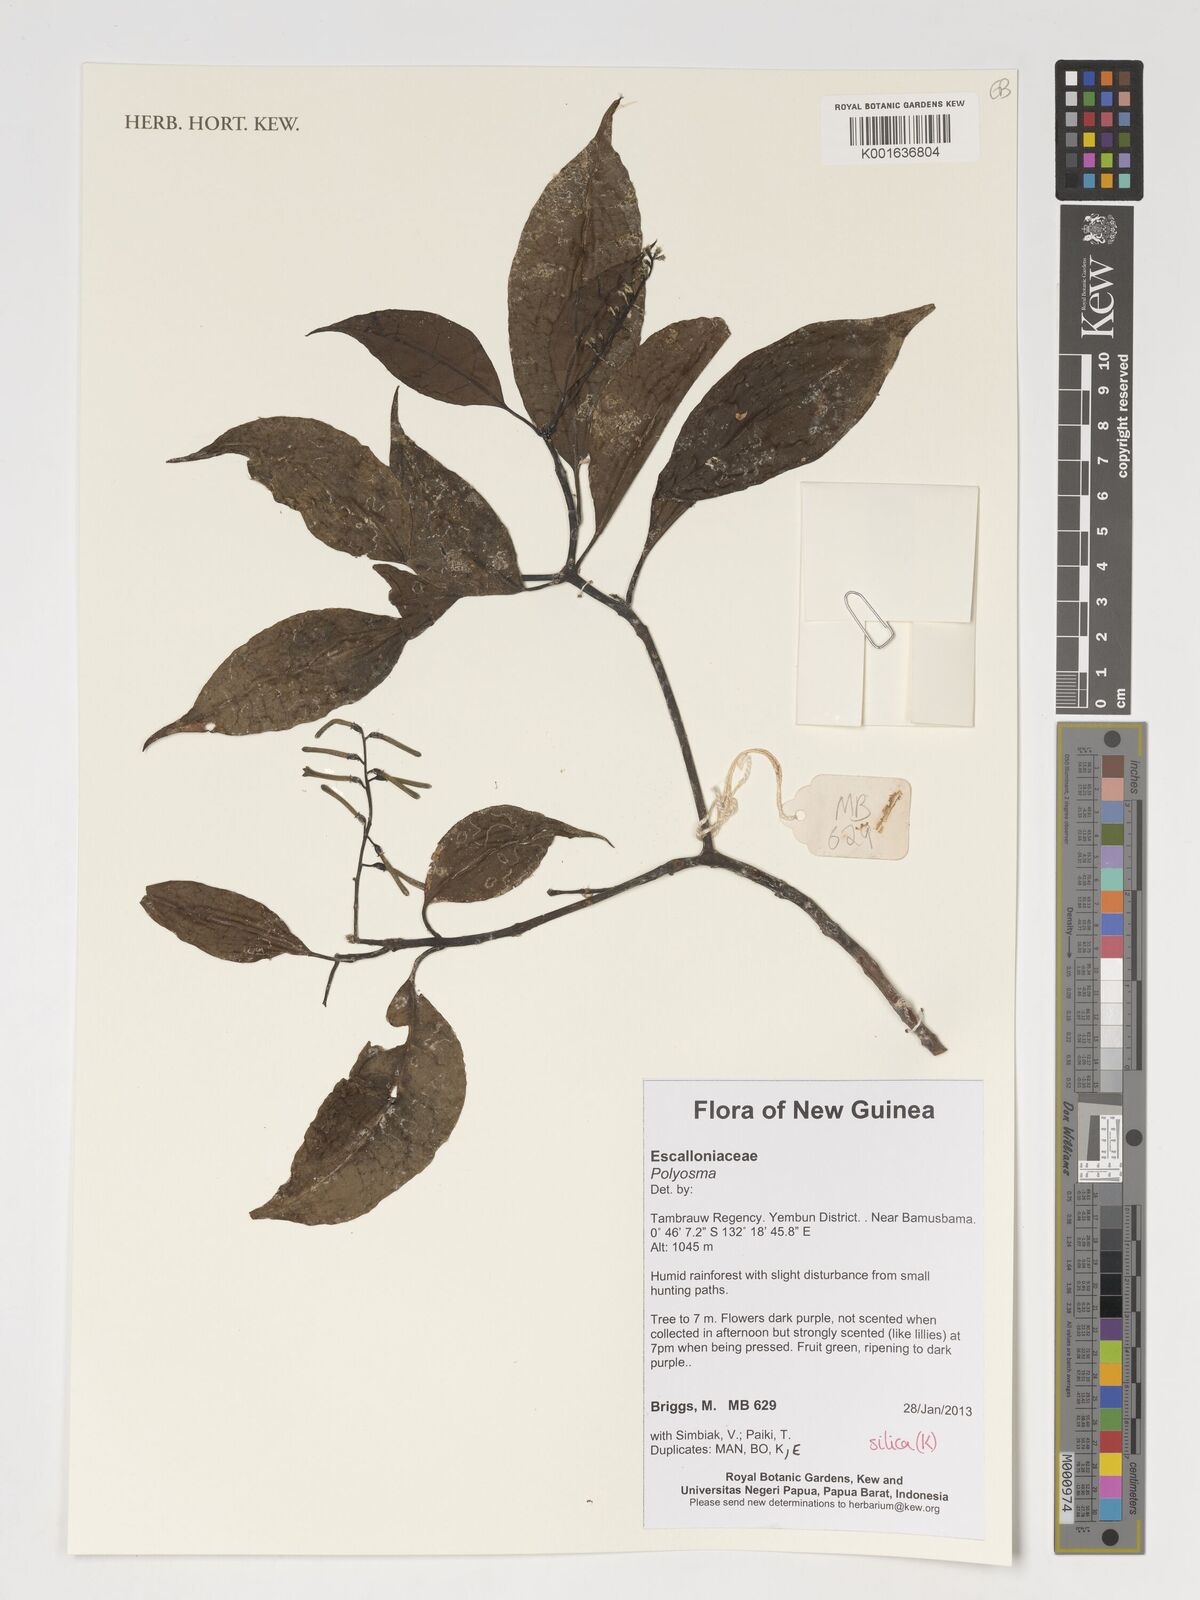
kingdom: Plantae
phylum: Tracheophyta
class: Magnoliopsida
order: Escalloniales
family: Escalloniaceae
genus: Polyosma
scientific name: Polyosma
